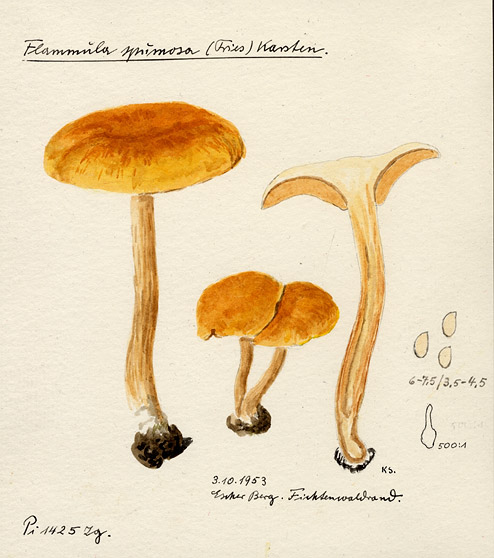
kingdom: Fungi
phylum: Basidiomycota
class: Agaricomycetes
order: Agaricales
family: Strophariaceae
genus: Pholiota
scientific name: Pholiota spumosa
